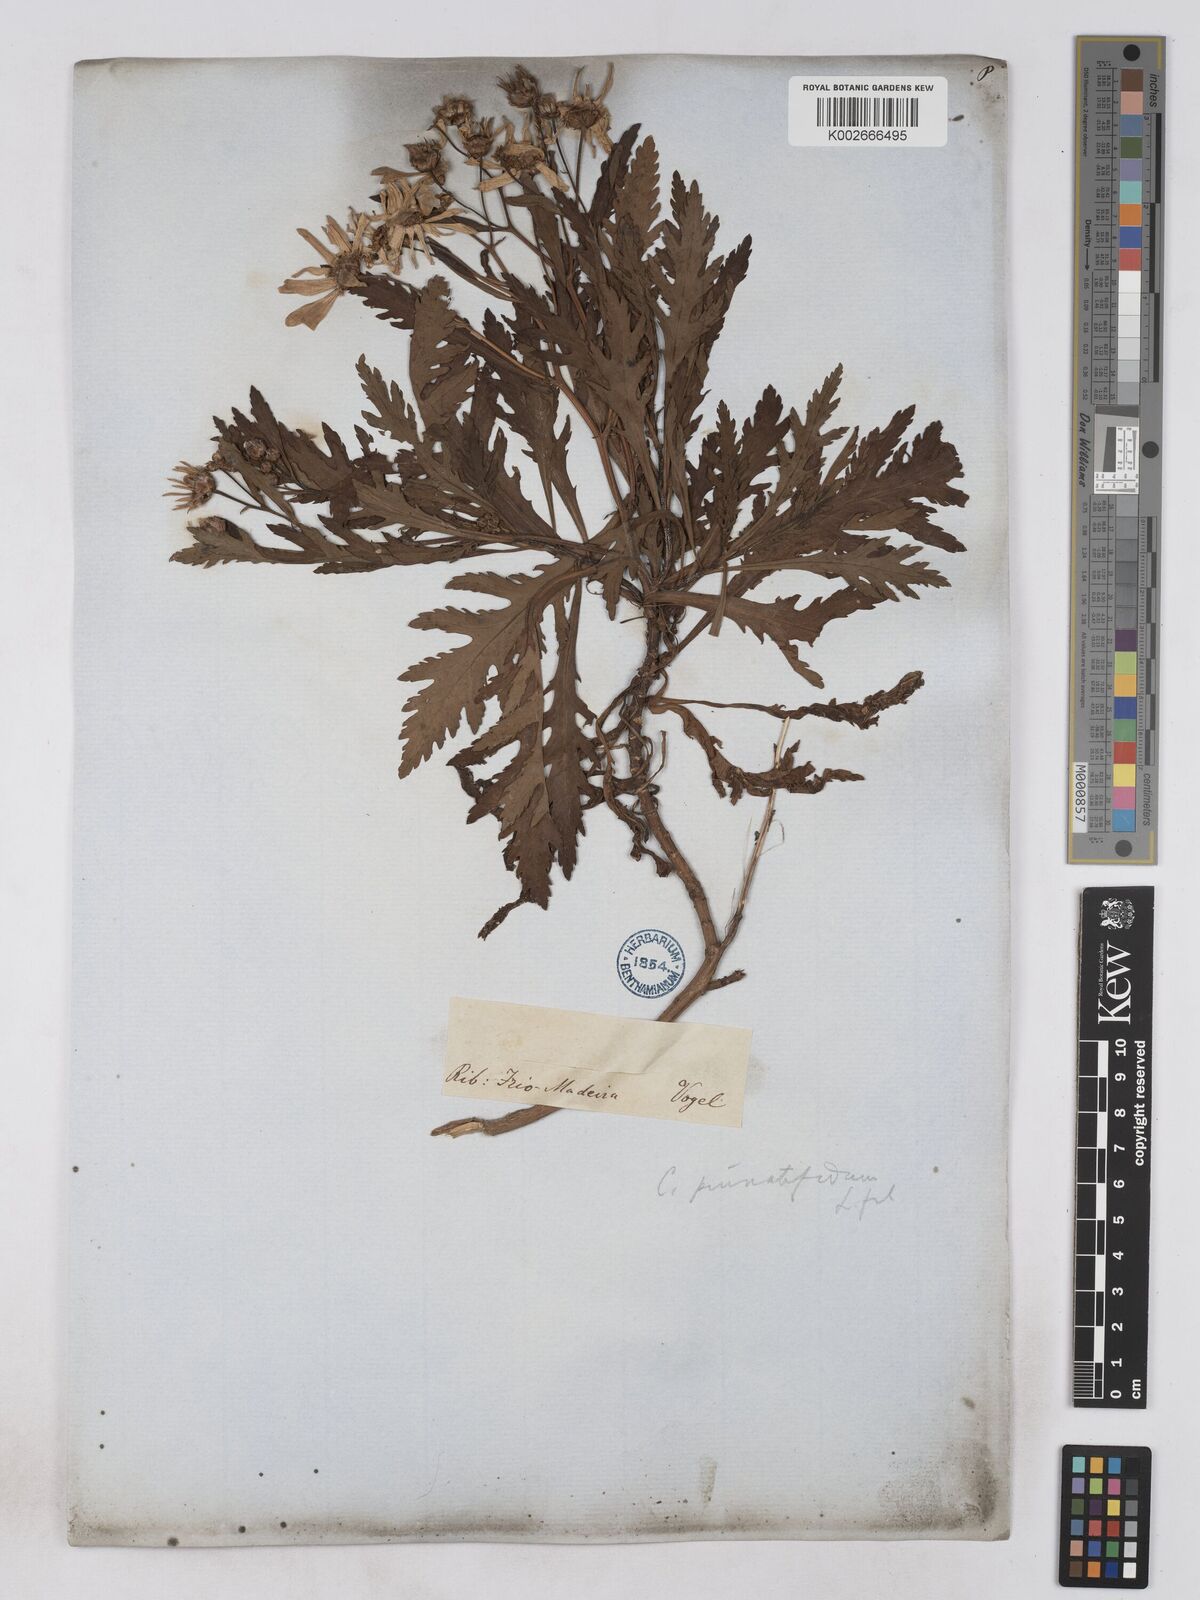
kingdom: Plantae
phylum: Tracheophyta
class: Magnoliopsida
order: Asterales
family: Asteraceae
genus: Argyranthemum
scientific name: Argyranthemum pinnatifidum
